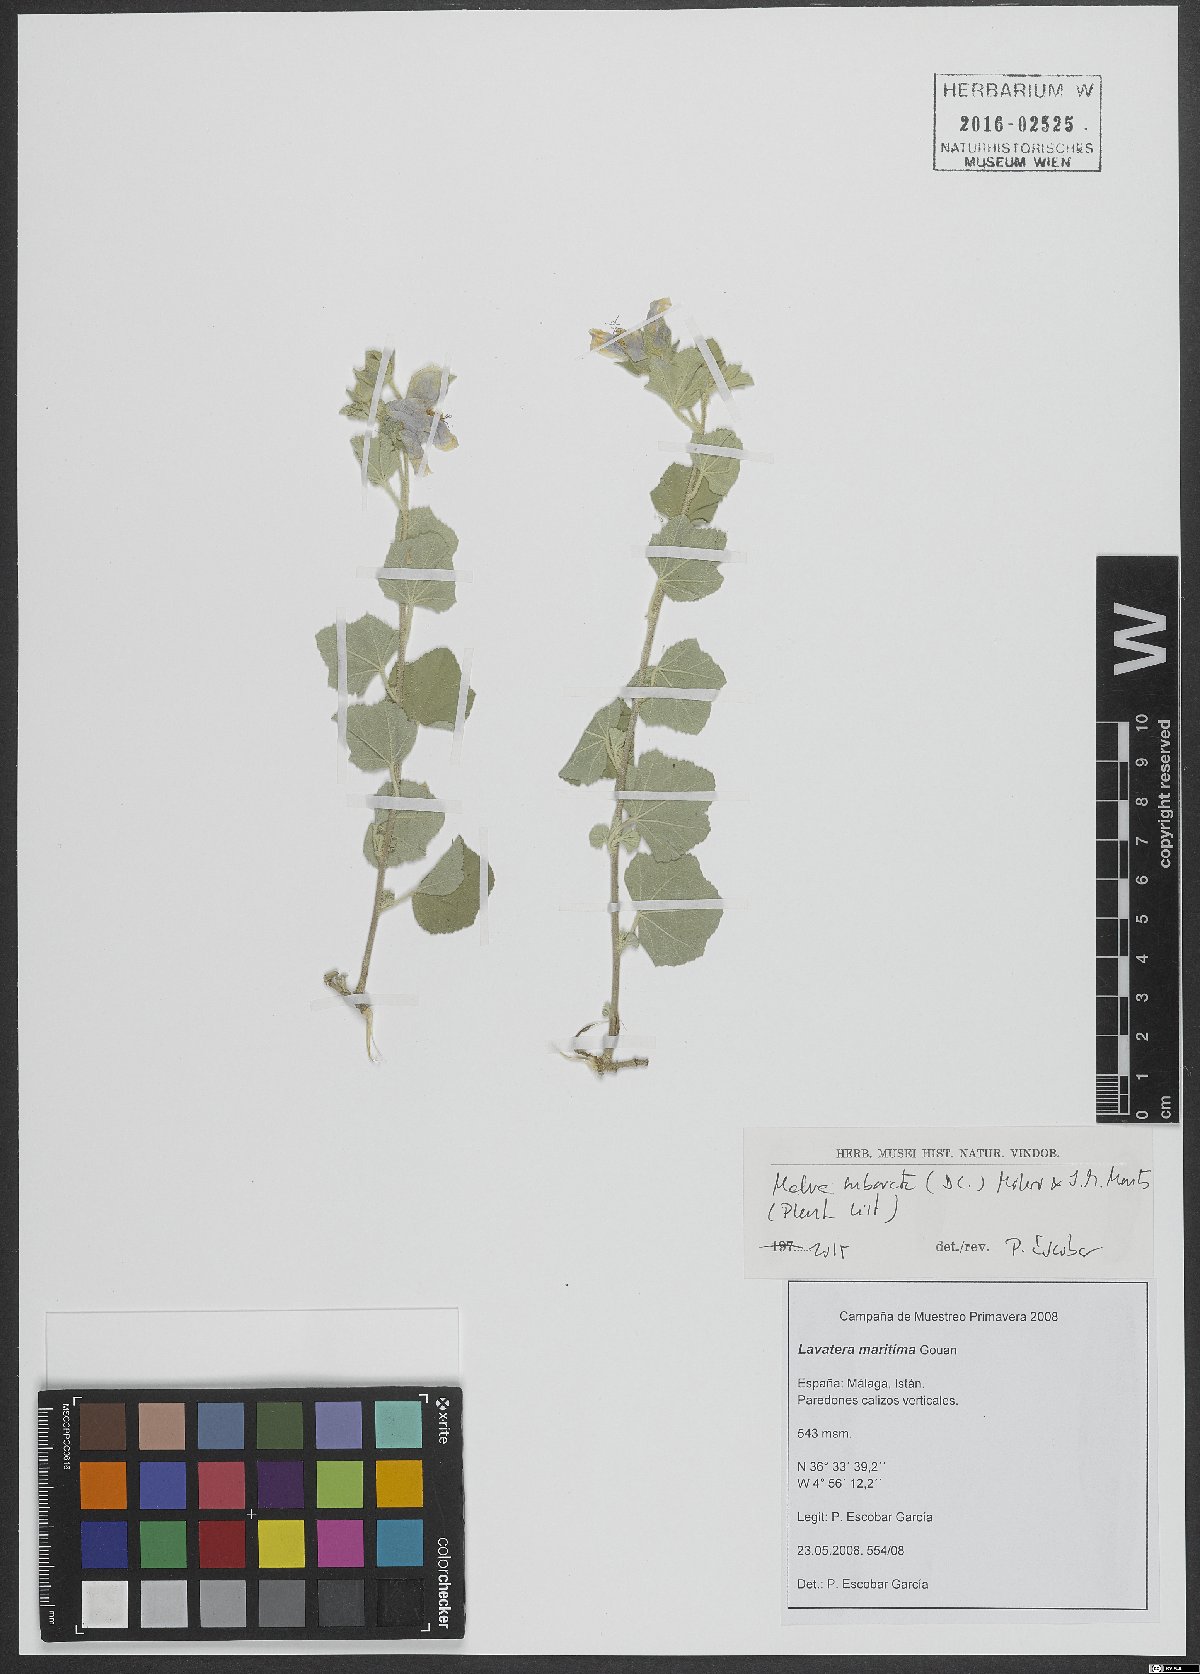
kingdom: Plantae
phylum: Tracheophyta
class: Magnoliopsida
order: Malvales
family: Malvaceae
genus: Malva
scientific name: Malva subovata
